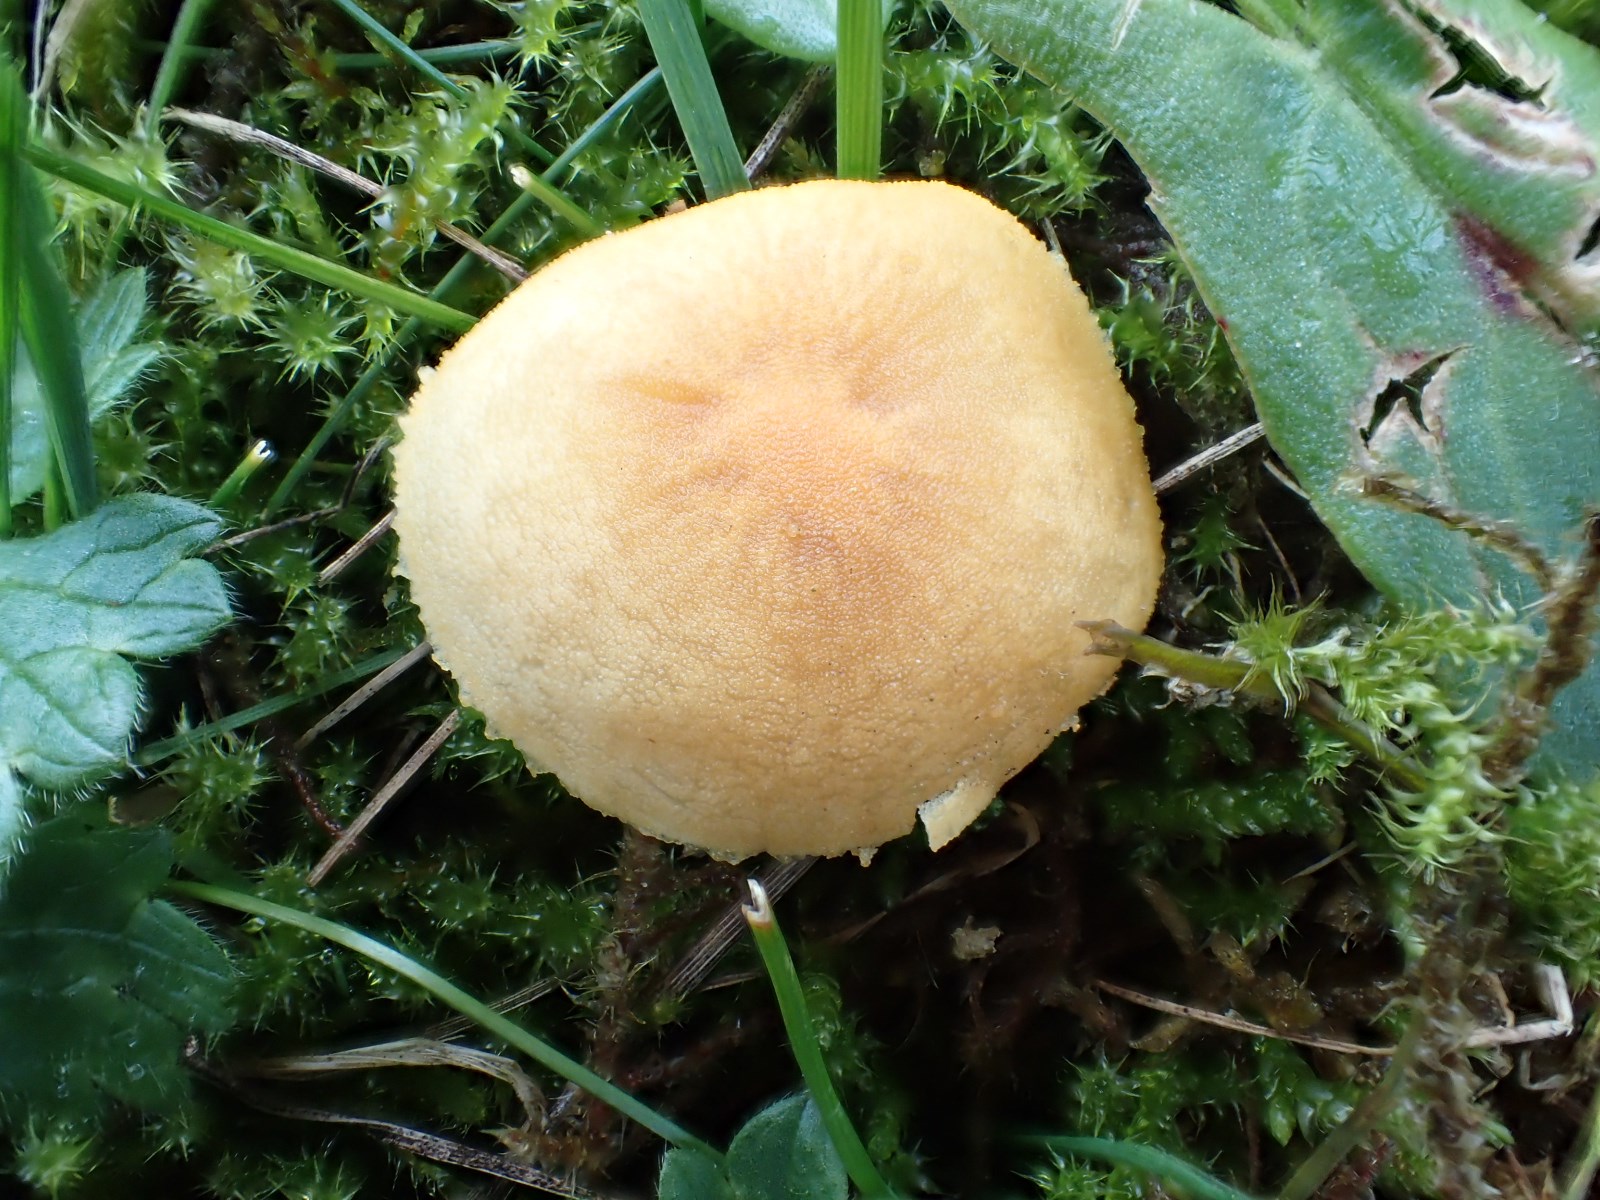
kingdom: Fungi
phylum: Basidiomycota
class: Agaricomycetes
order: Agaricales
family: Tricholomataceae
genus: Cystoderma
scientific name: Cystoderma amianthinum
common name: okkergul grynhat
